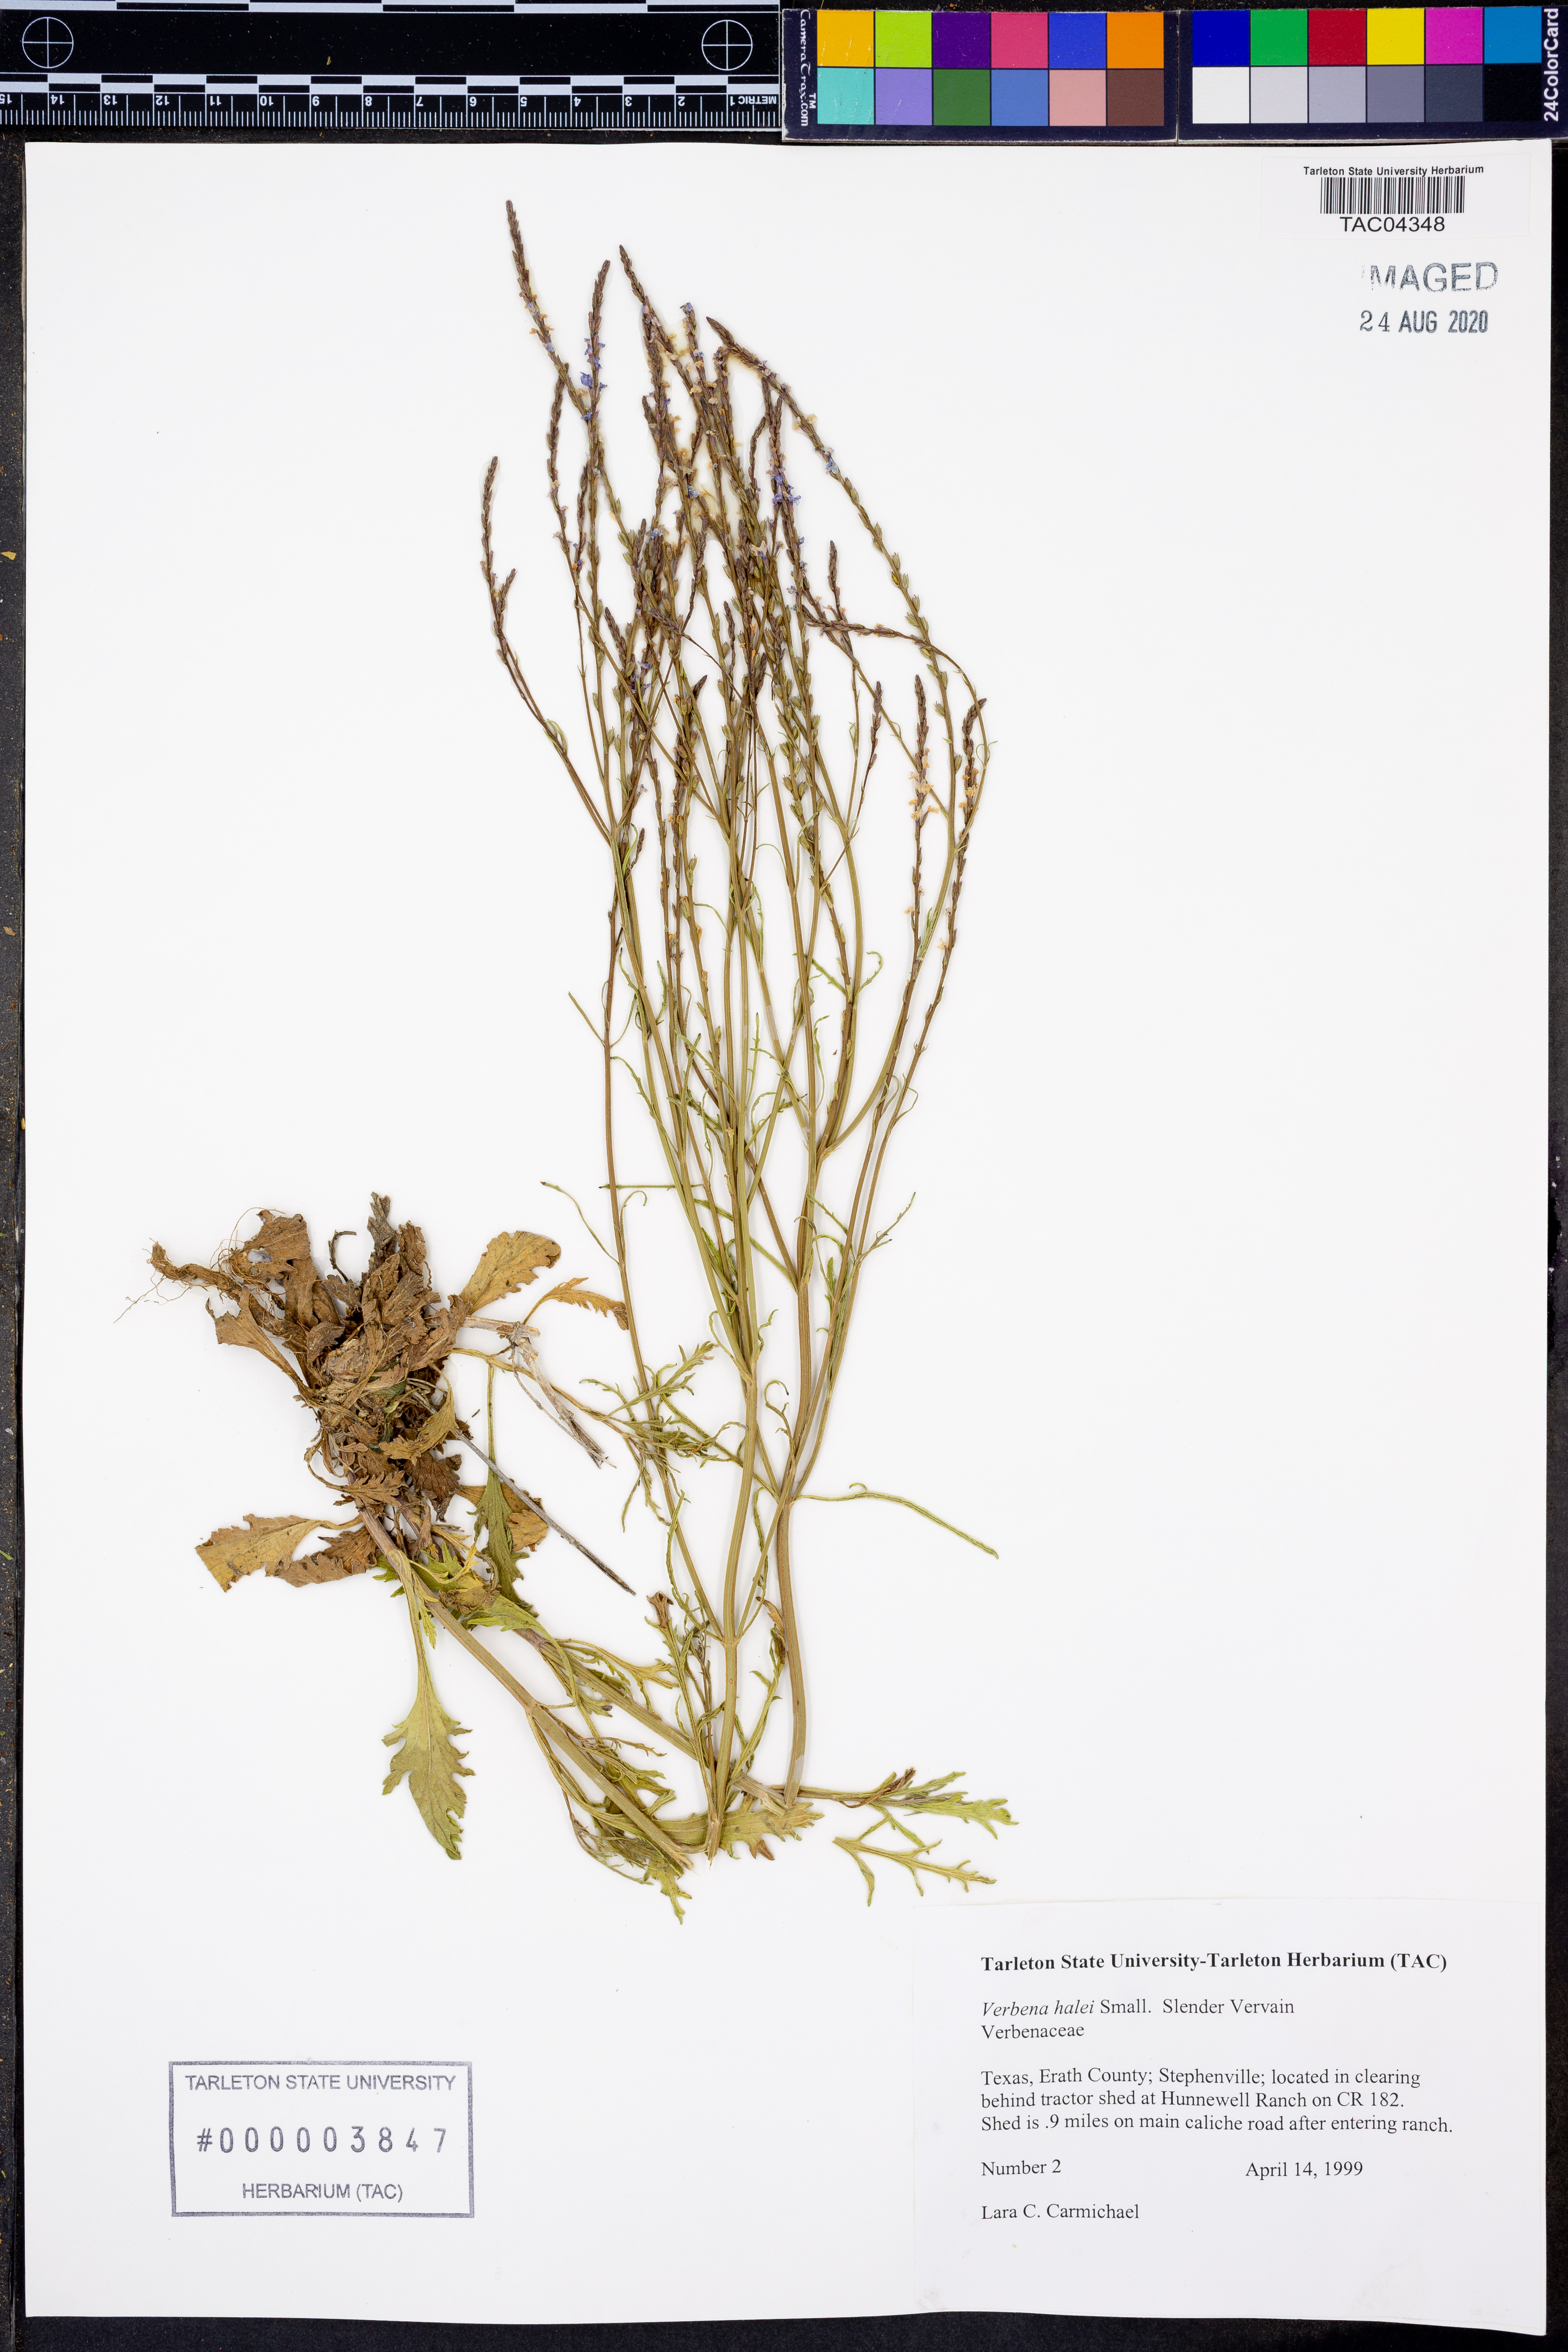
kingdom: Plantae
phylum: Tracheophyta
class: Magnoliopsida
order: Lamiales
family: Verbenaceae
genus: Verbena
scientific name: Verbena halei
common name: Texas vervain
